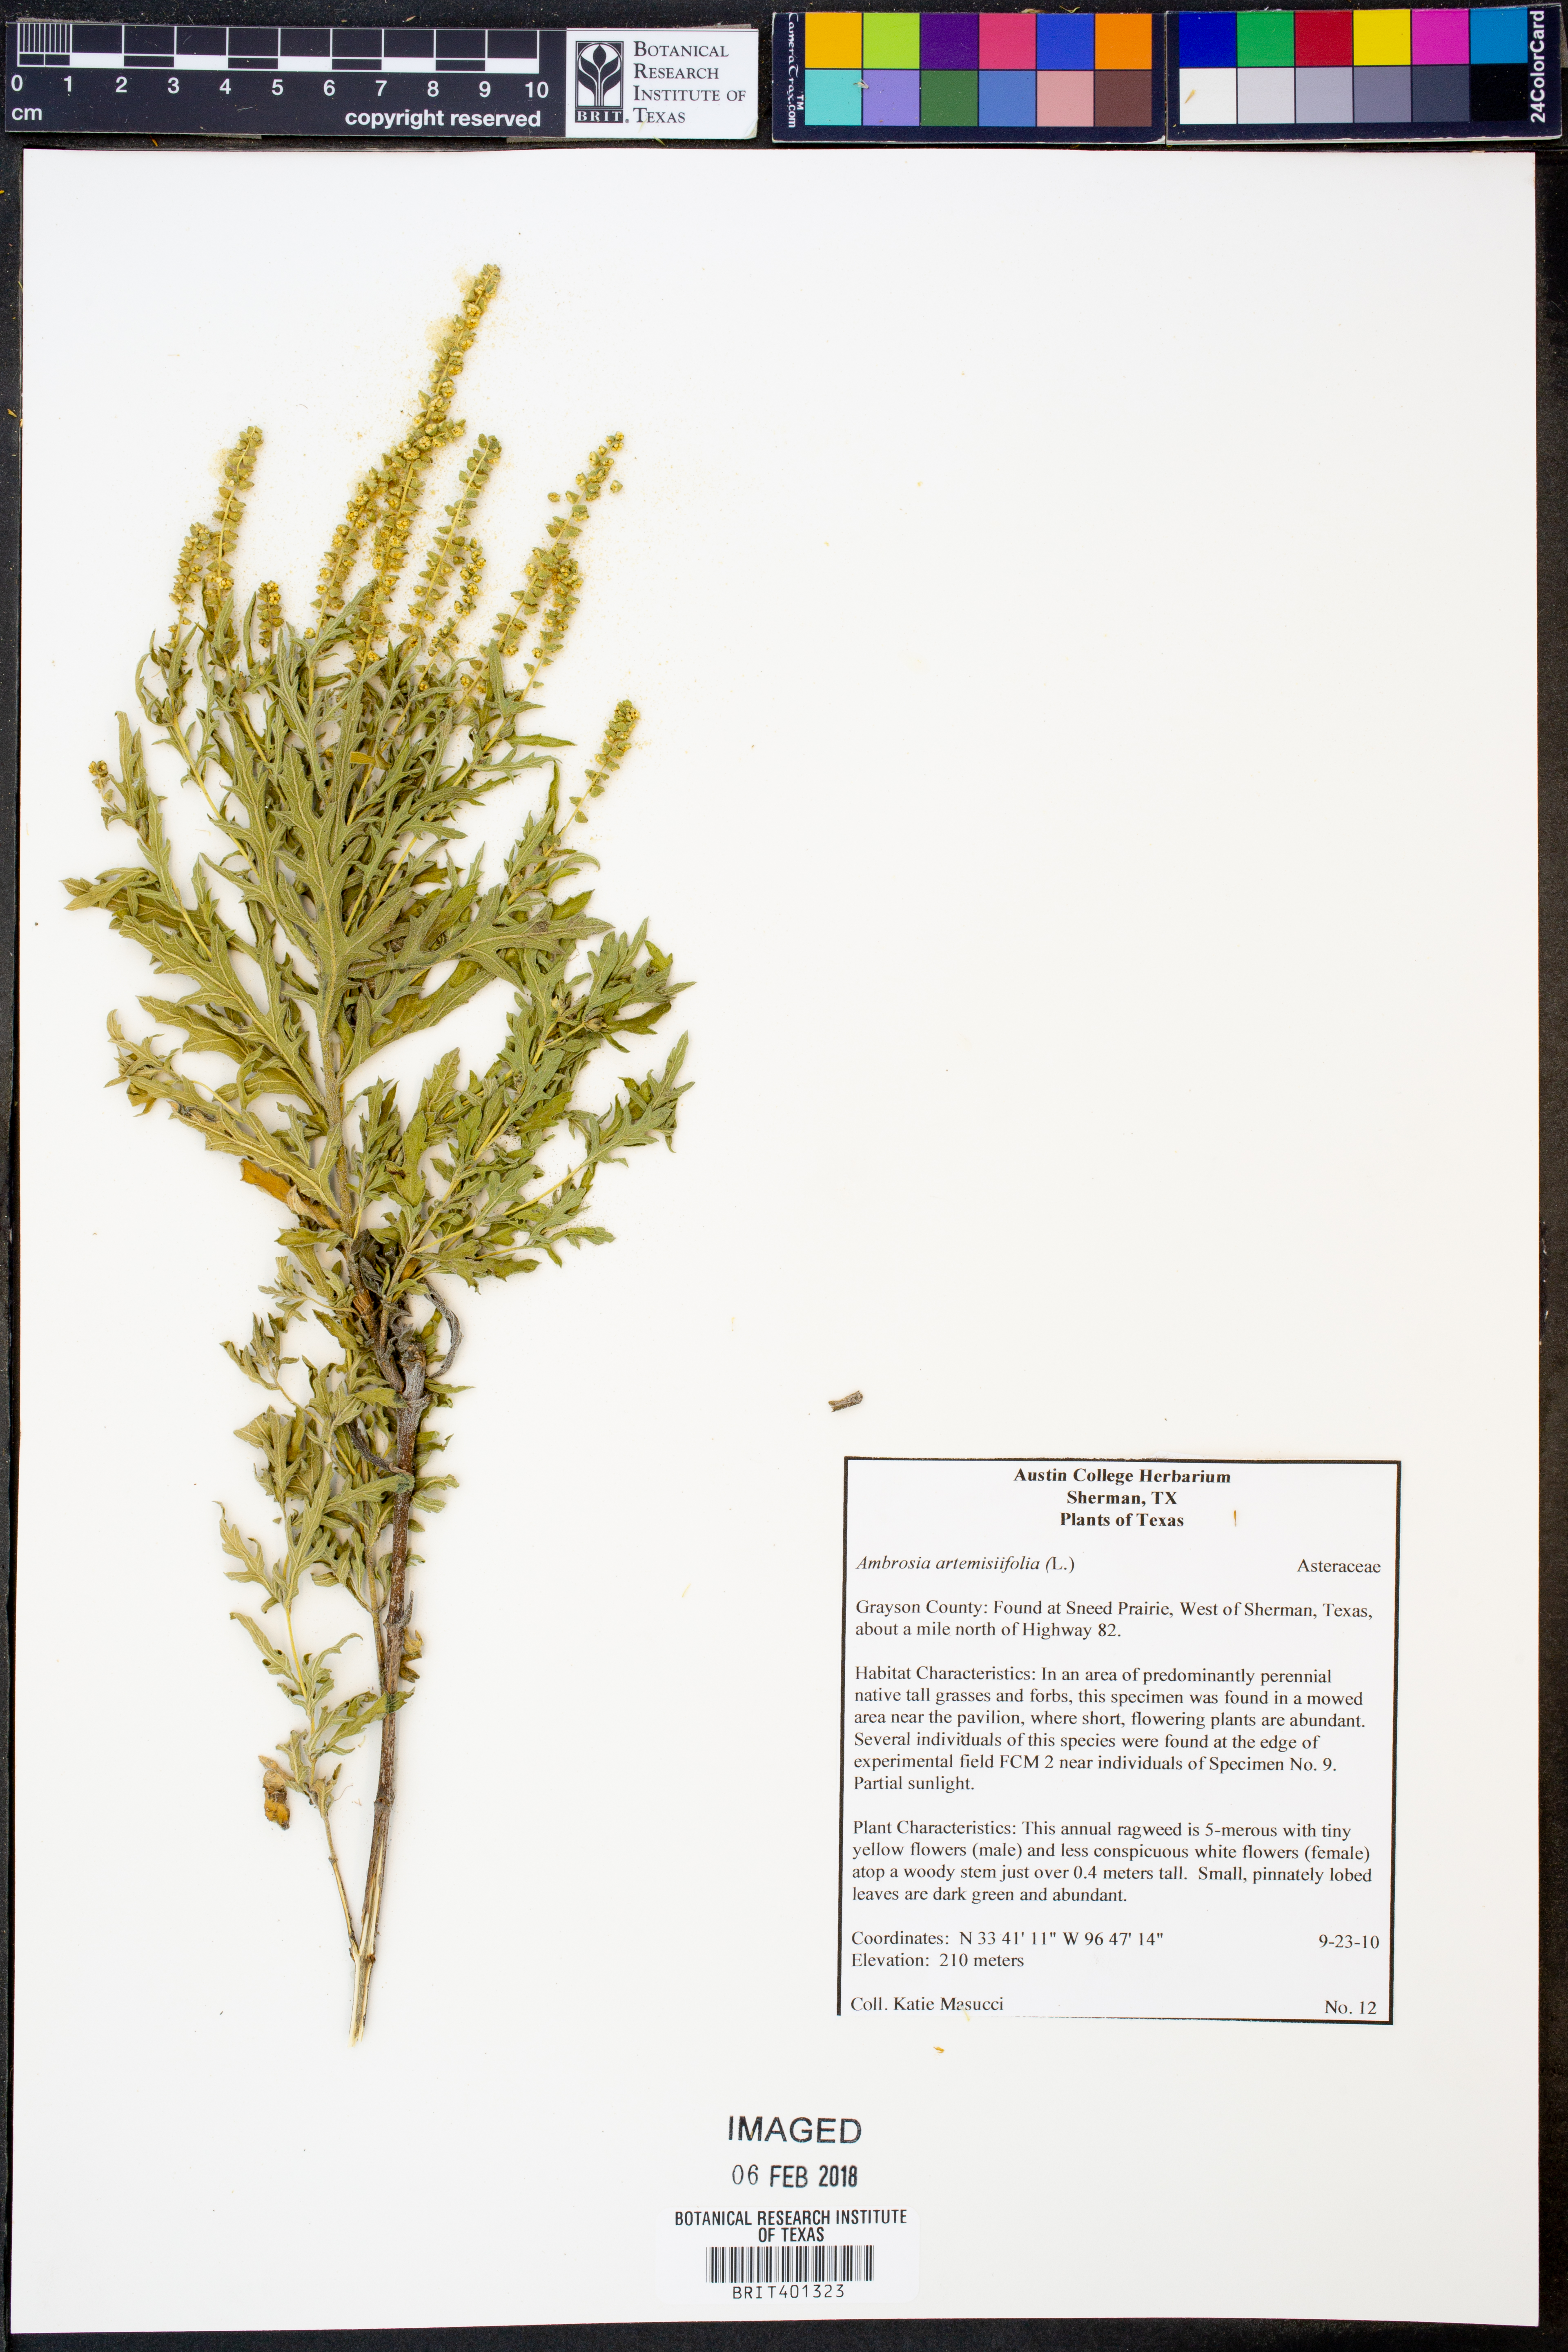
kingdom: Plantae
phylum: Tracheophyta
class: Magnoliopsida
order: Asterales
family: Asteraceae
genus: Ambrosia
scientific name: Ambrosia artemisiifolia
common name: Annual ragweed
